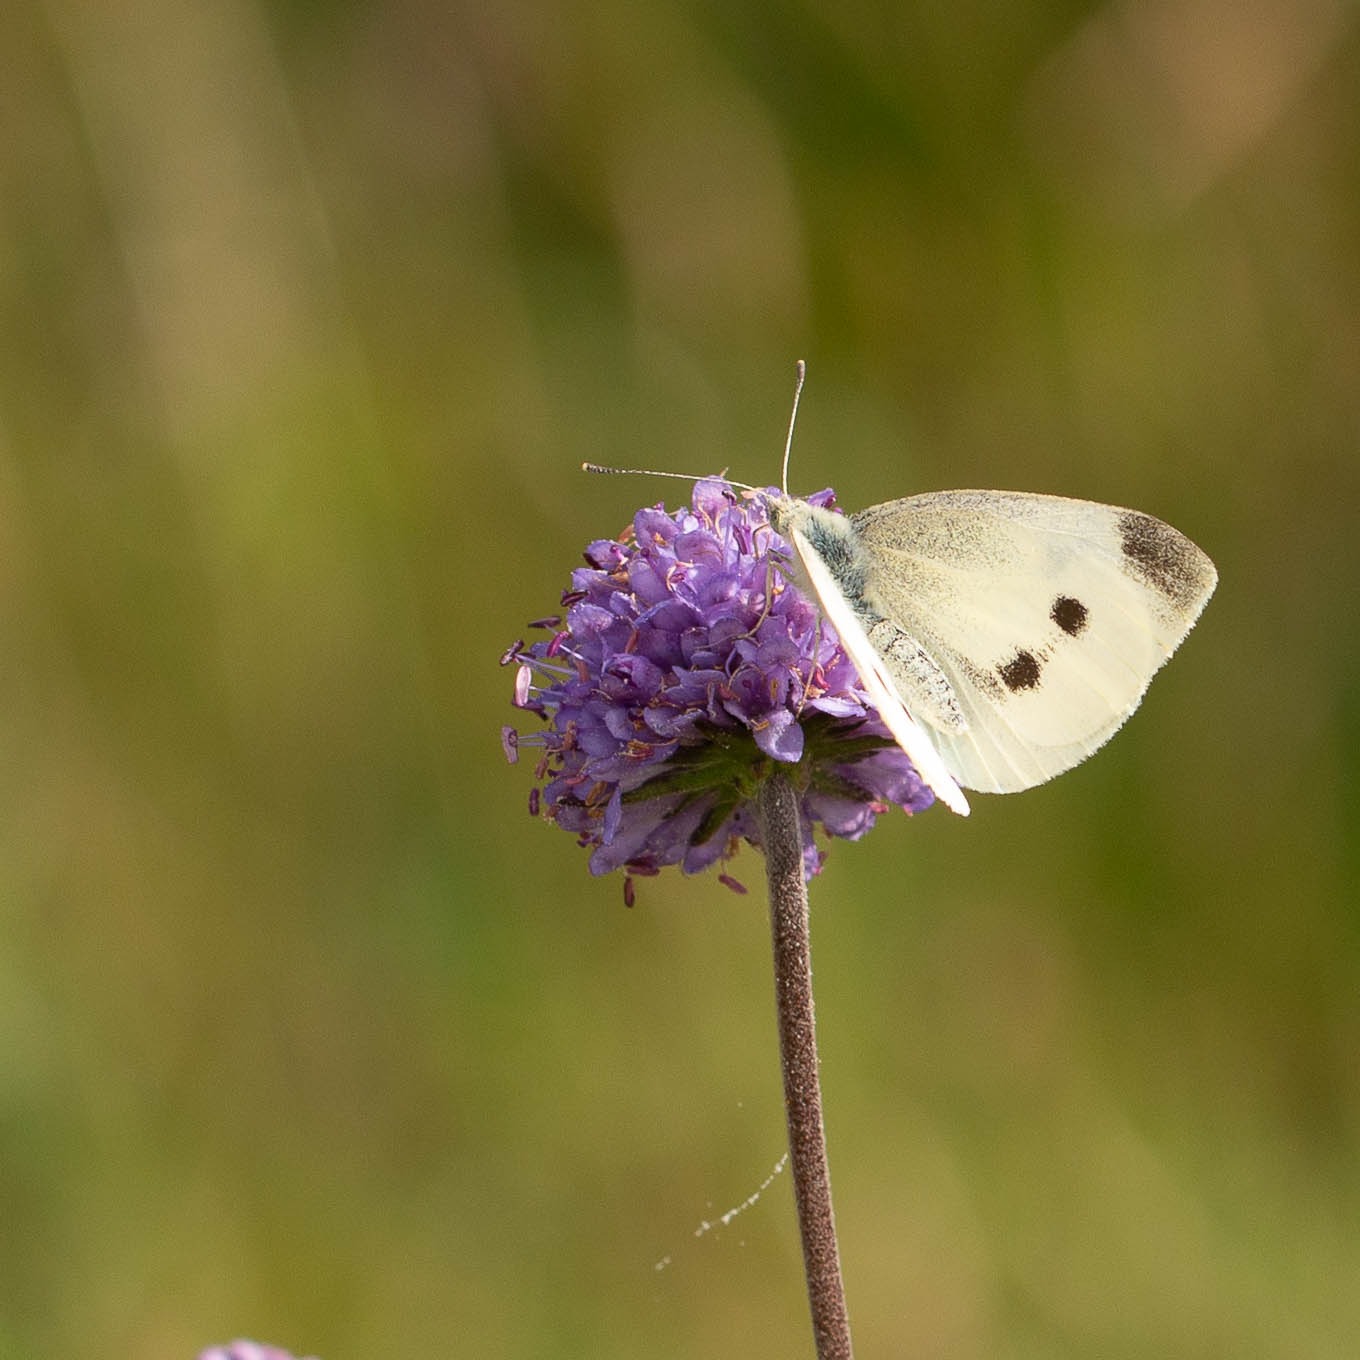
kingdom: Animalia
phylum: Arthropoda
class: Insecta
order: Lepidoptera
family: Pieridae
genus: Pieris
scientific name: Pieris rapae
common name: Lille kålsommerfugl
